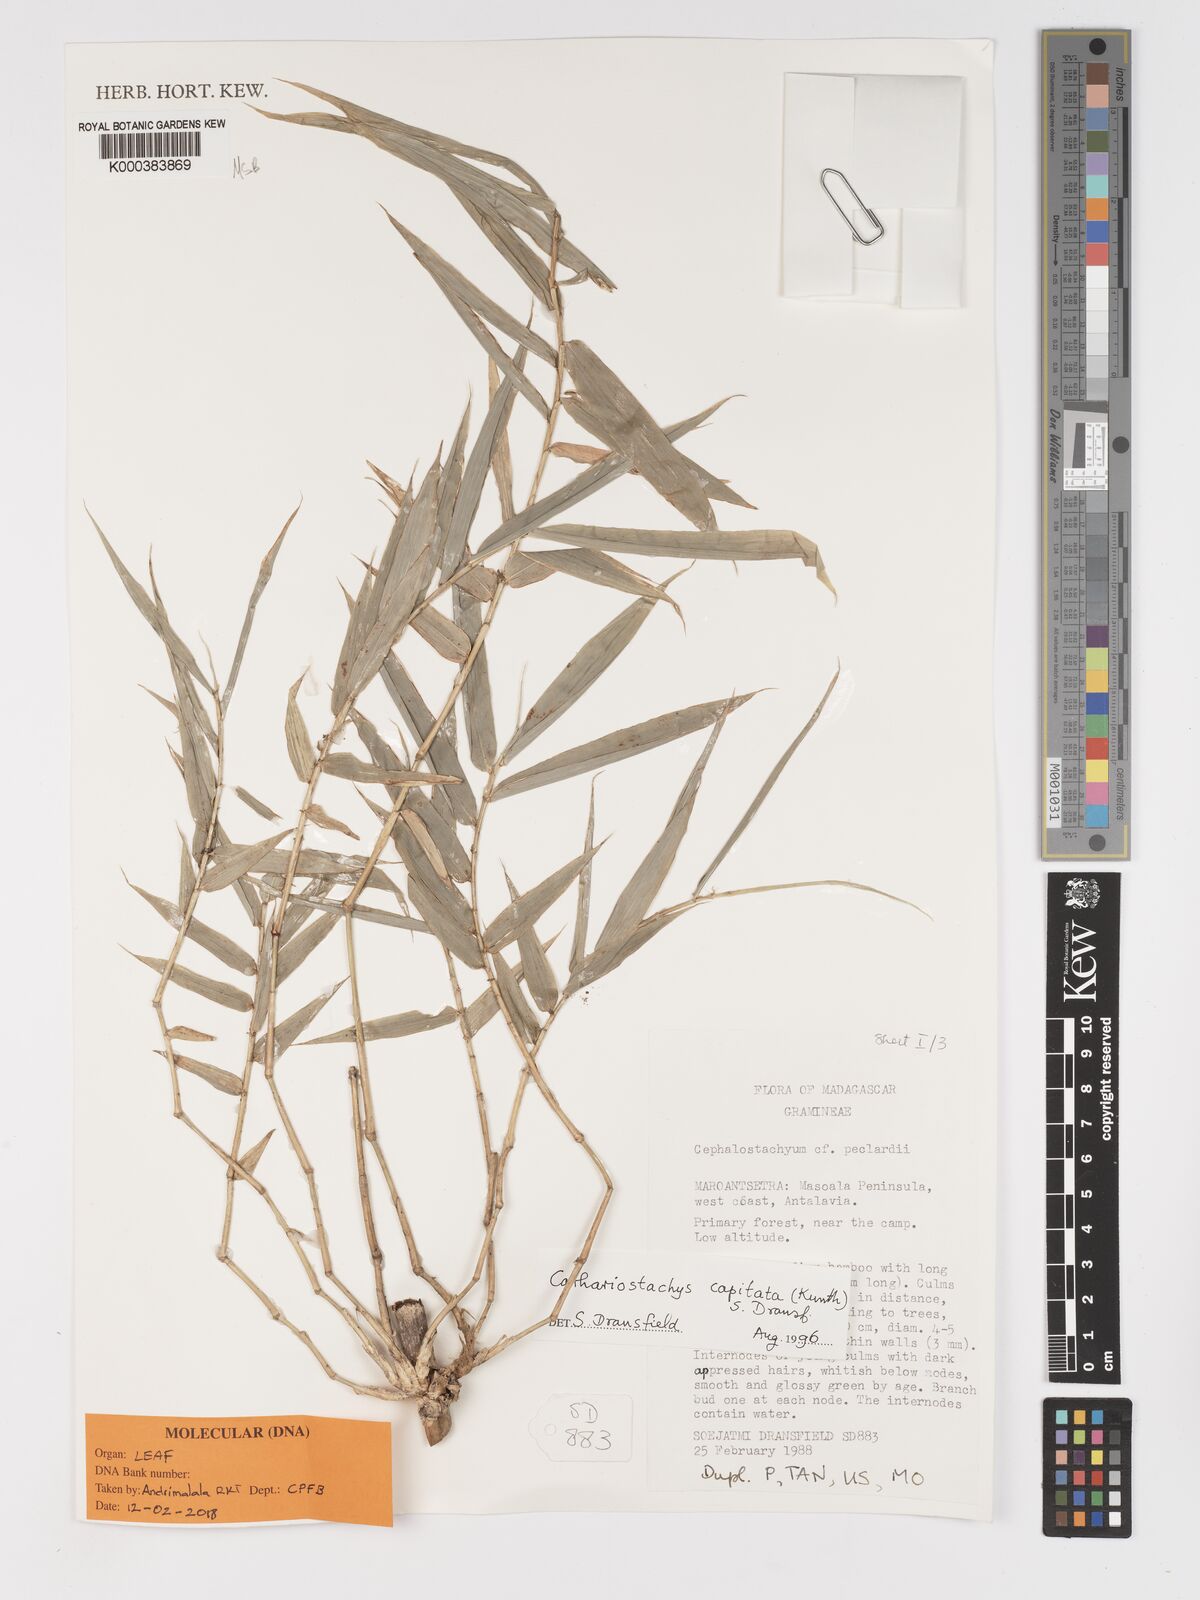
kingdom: Plantae
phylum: Tracheophyta
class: Liliopsida
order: Poales
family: Poaceae
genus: Cathariostachys
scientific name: Cathariostachys capitata
